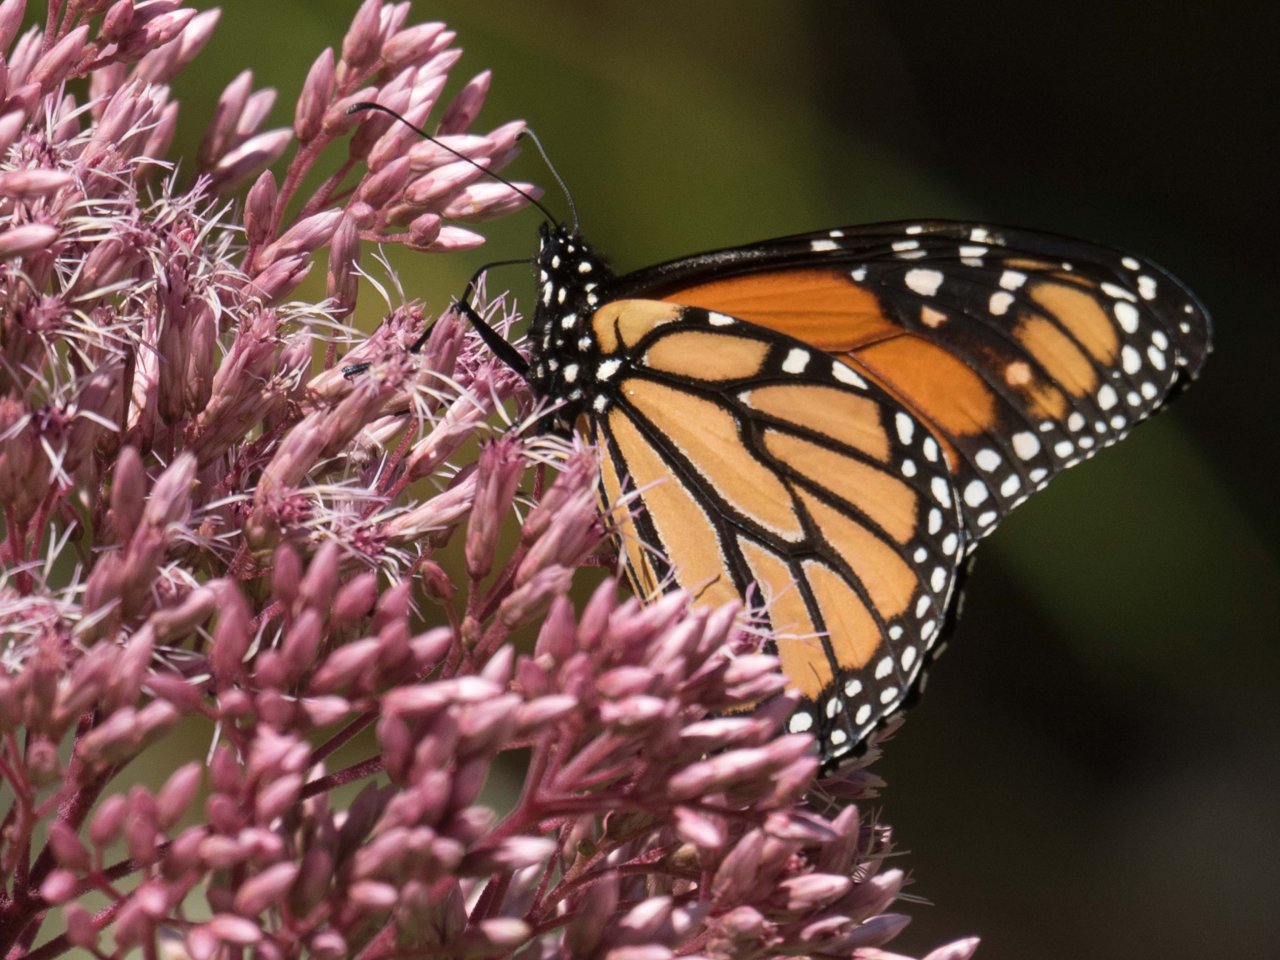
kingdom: Animalia
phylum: Arthropoda
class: Insecta
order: Lepidoptera
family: Nymphalidae
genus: Danaus
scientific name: Danaus plexippus
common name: Monarch
